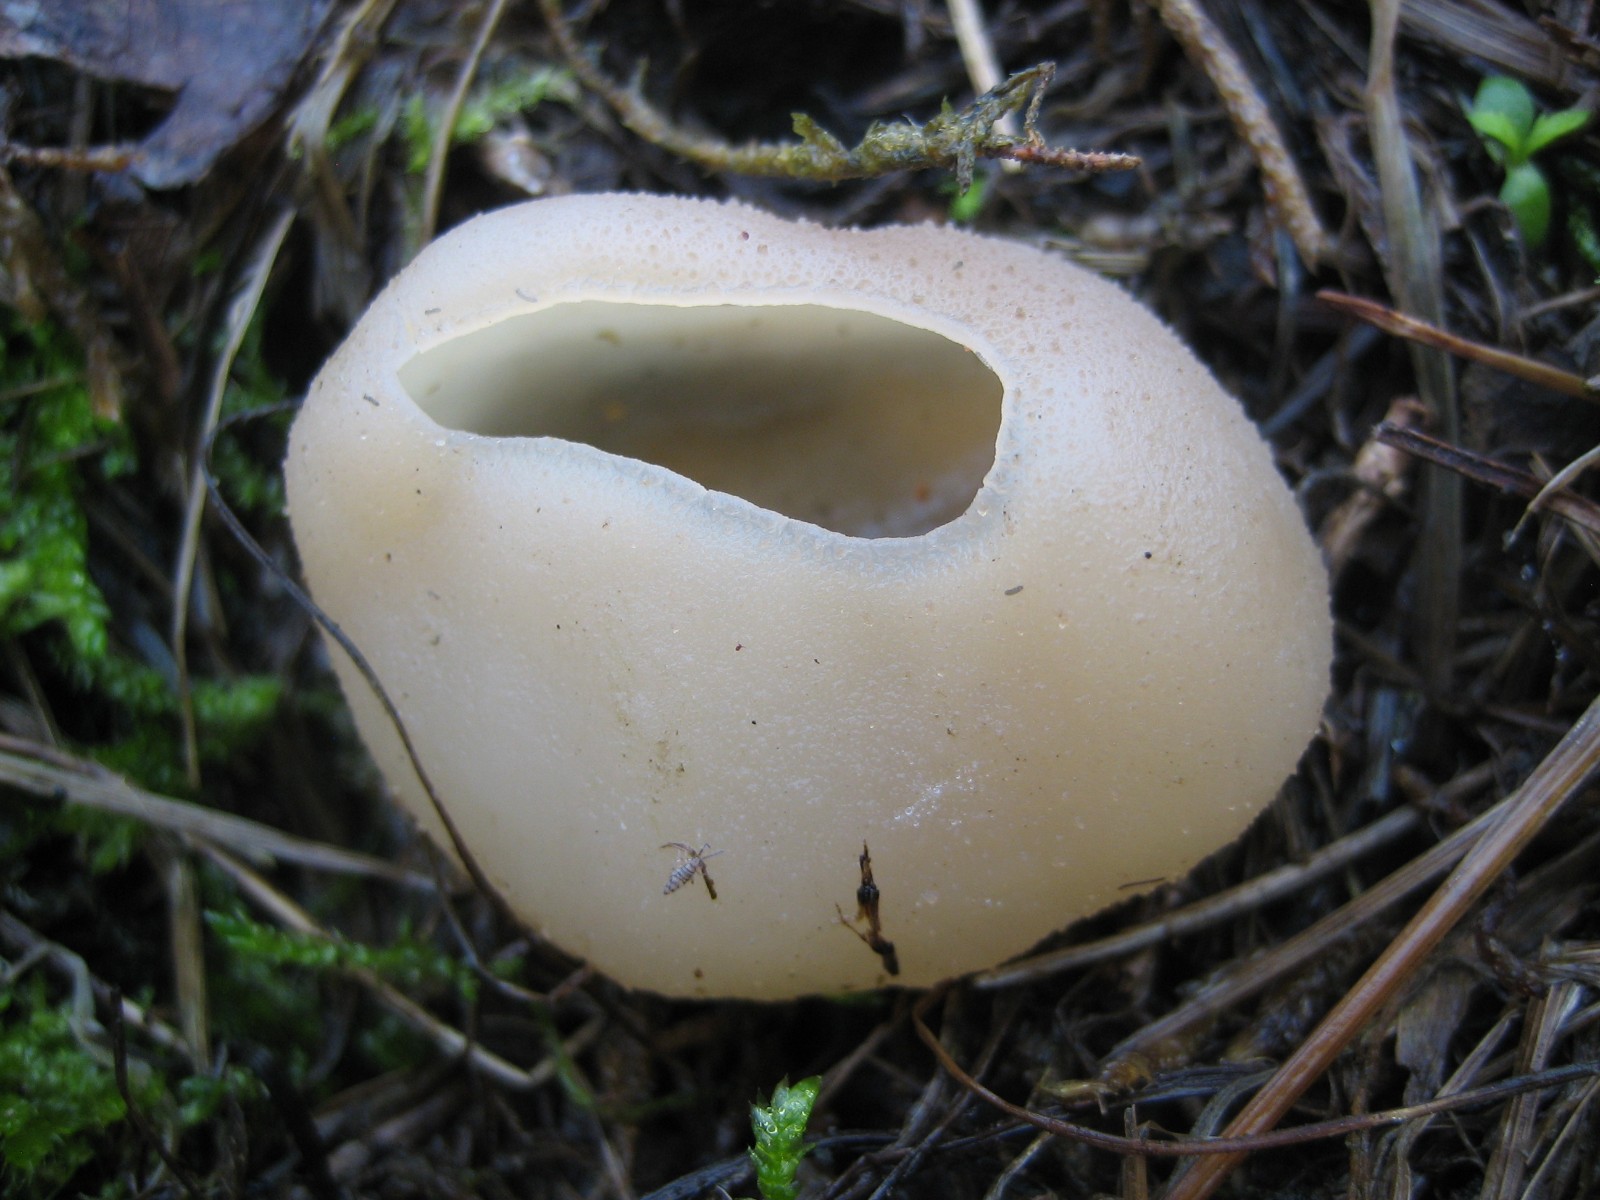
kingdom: Fungi
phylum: Ascomycota
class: Pezizomycetes
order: Pezizales
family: Pezizaceae
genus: Peziza
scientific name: Peziza vesiculosa
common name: blære-bægersvamp
